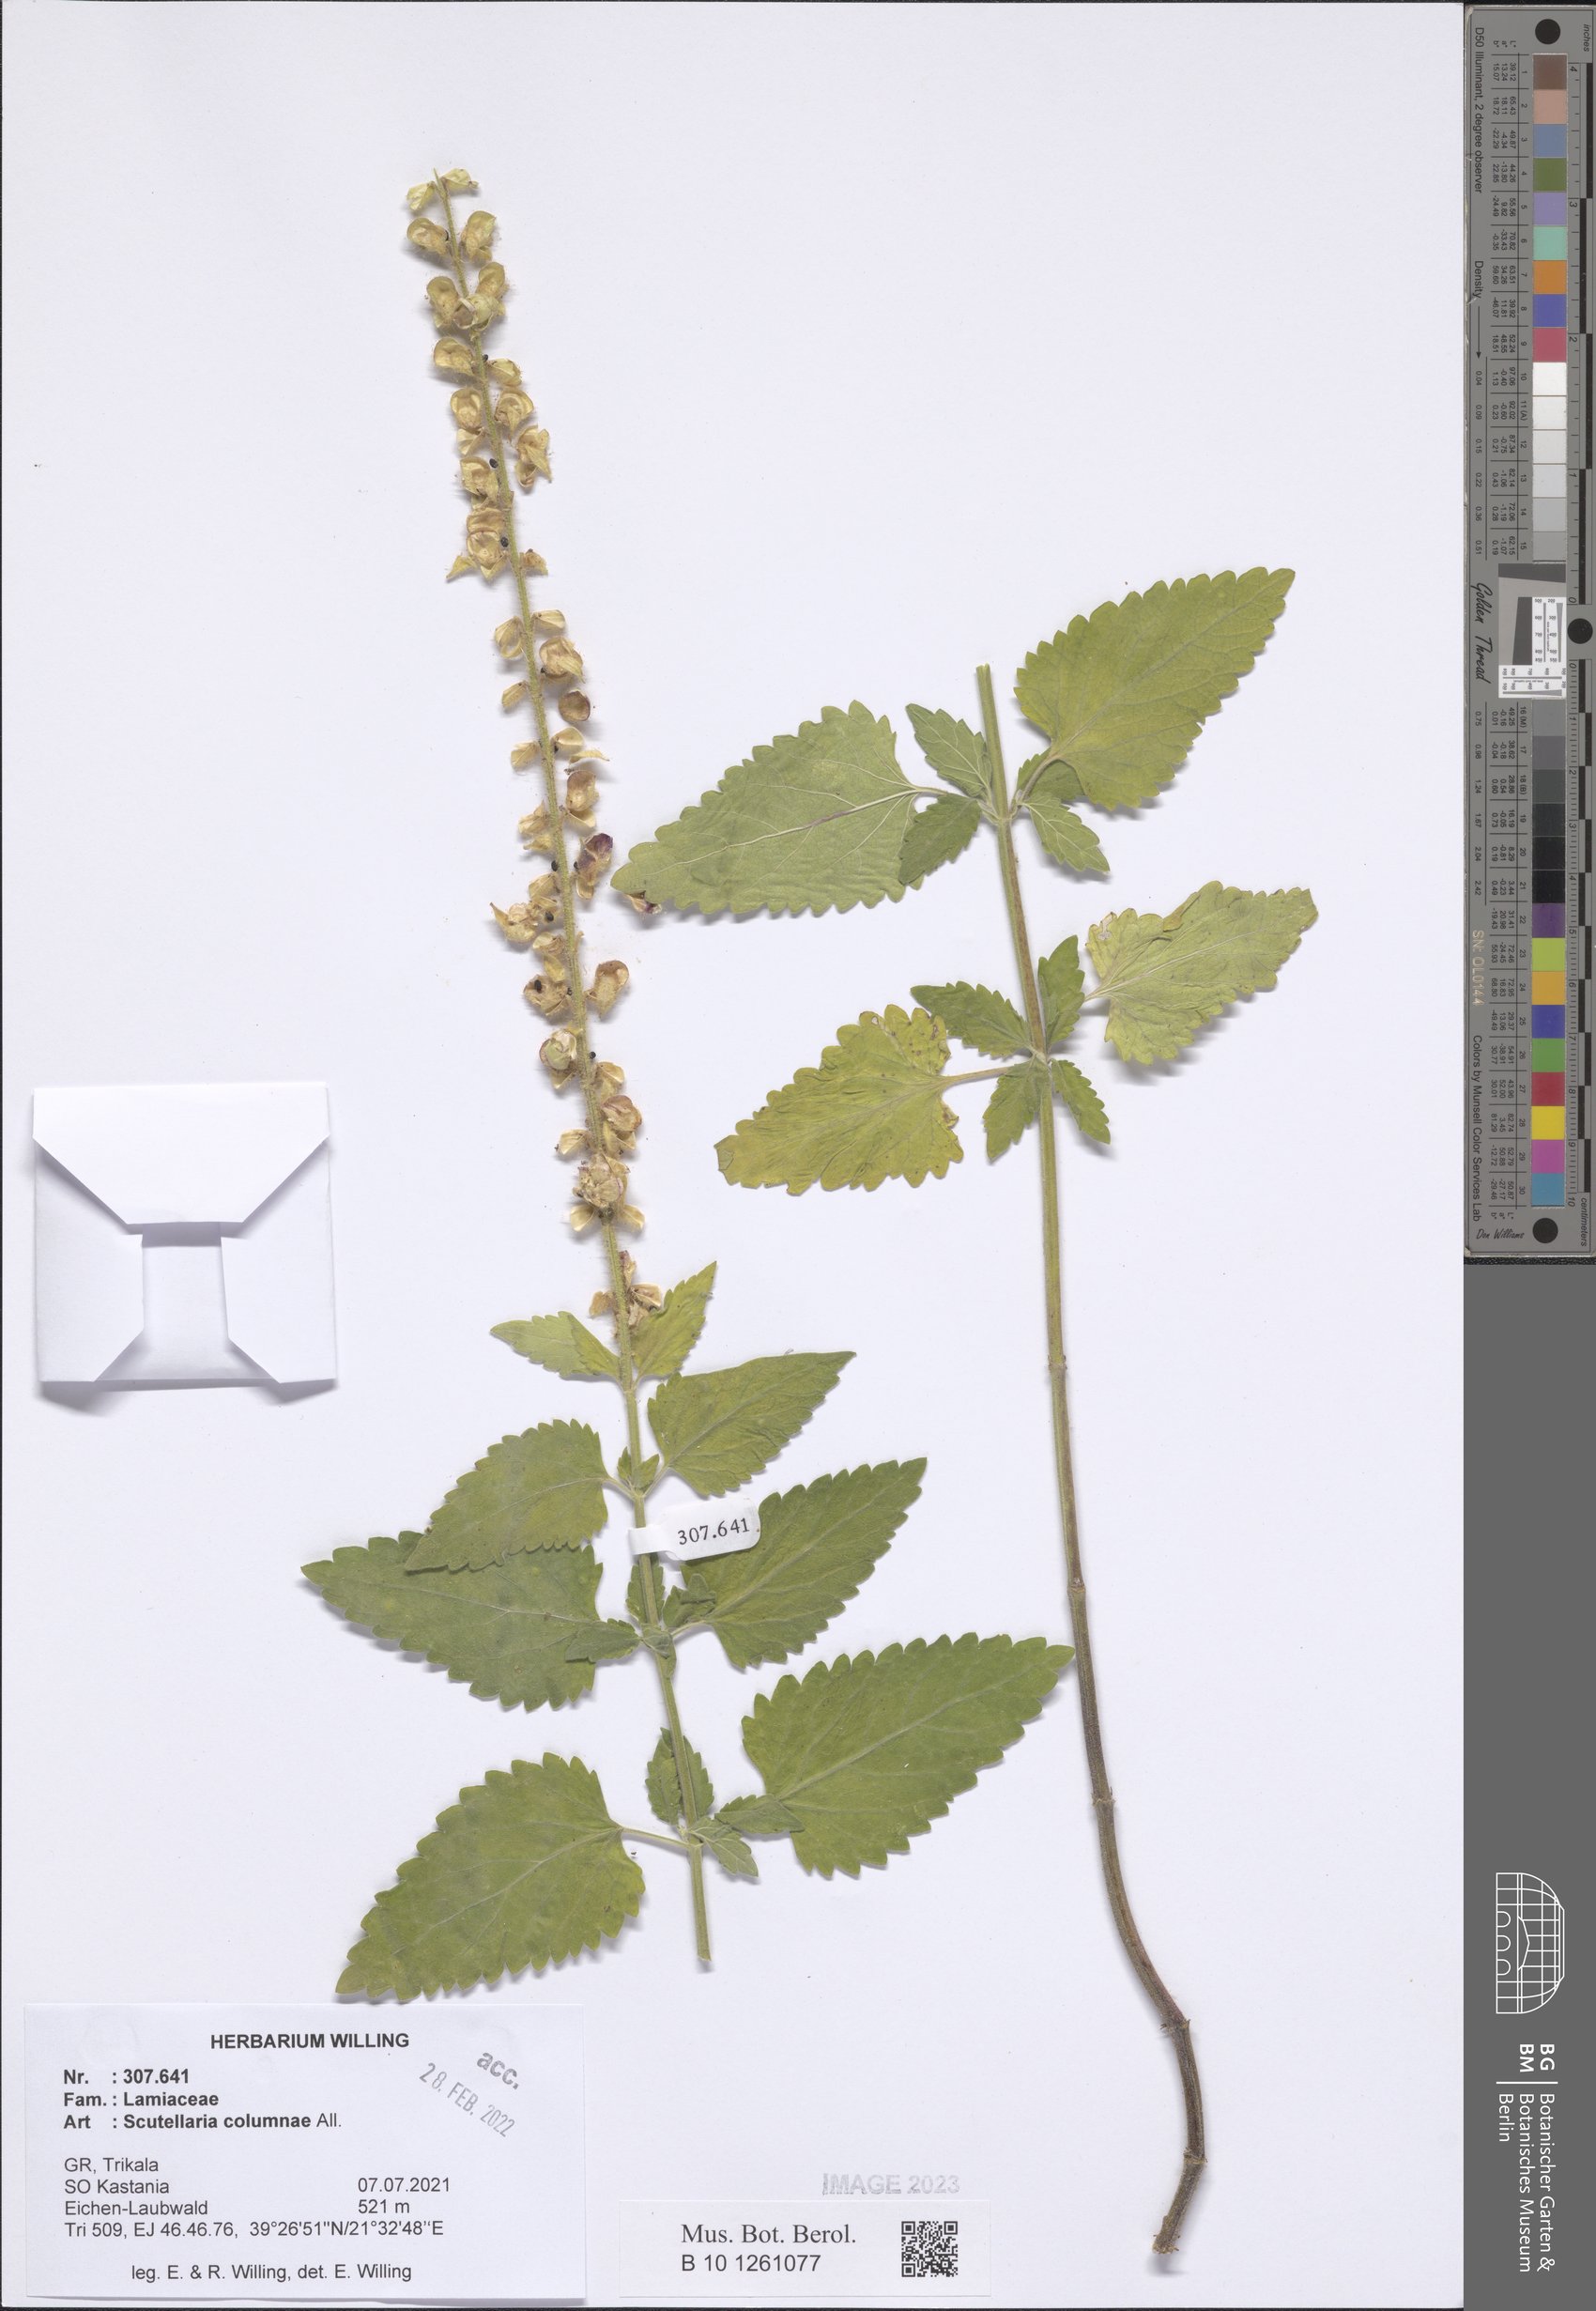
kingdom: Plantae
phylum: Tracheophyta
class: Magnoliopsida
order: Lamiales
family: Lamiaceae
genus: Scutellaria
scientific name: Scutellaria columnae
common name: Large skullcap
